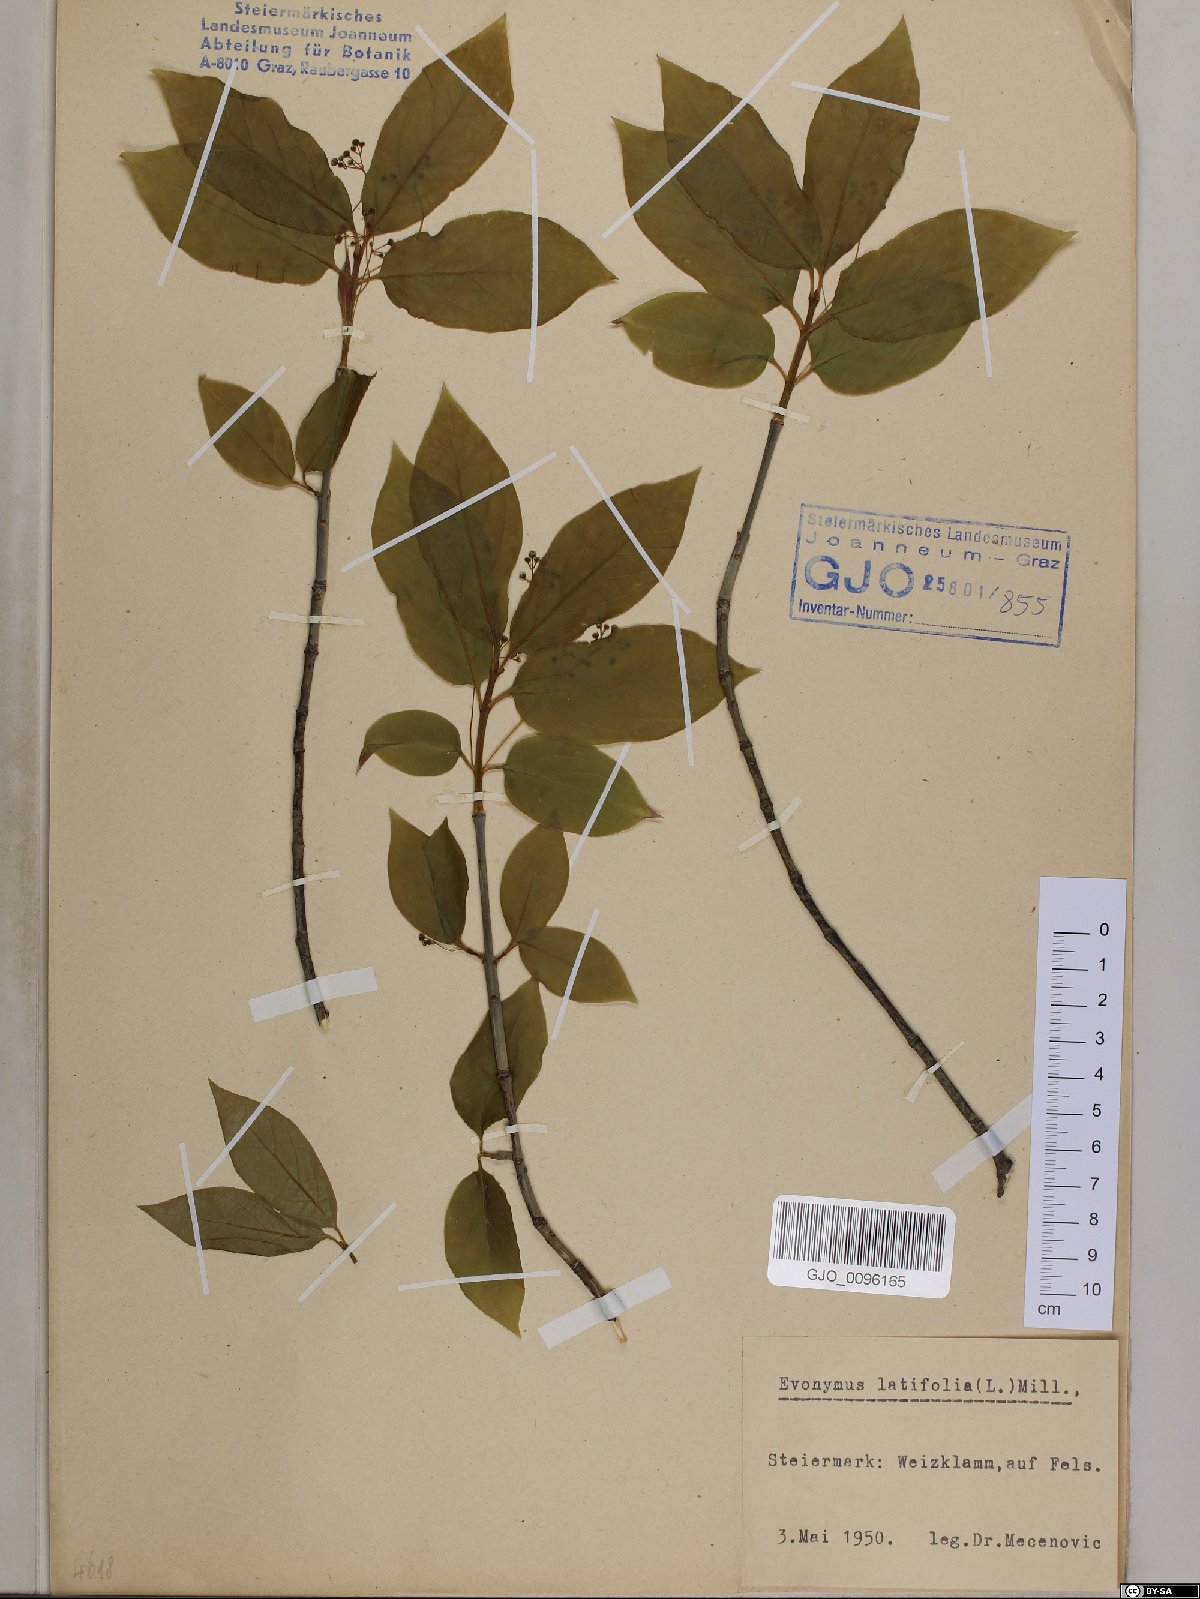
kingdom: Plantae
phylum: Tracheophyta
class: Magnoliopsida
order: Celastrales
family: Celastraceae
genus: Euonymus
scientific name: Euonymus latifolius
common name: Large-leaved spindle
